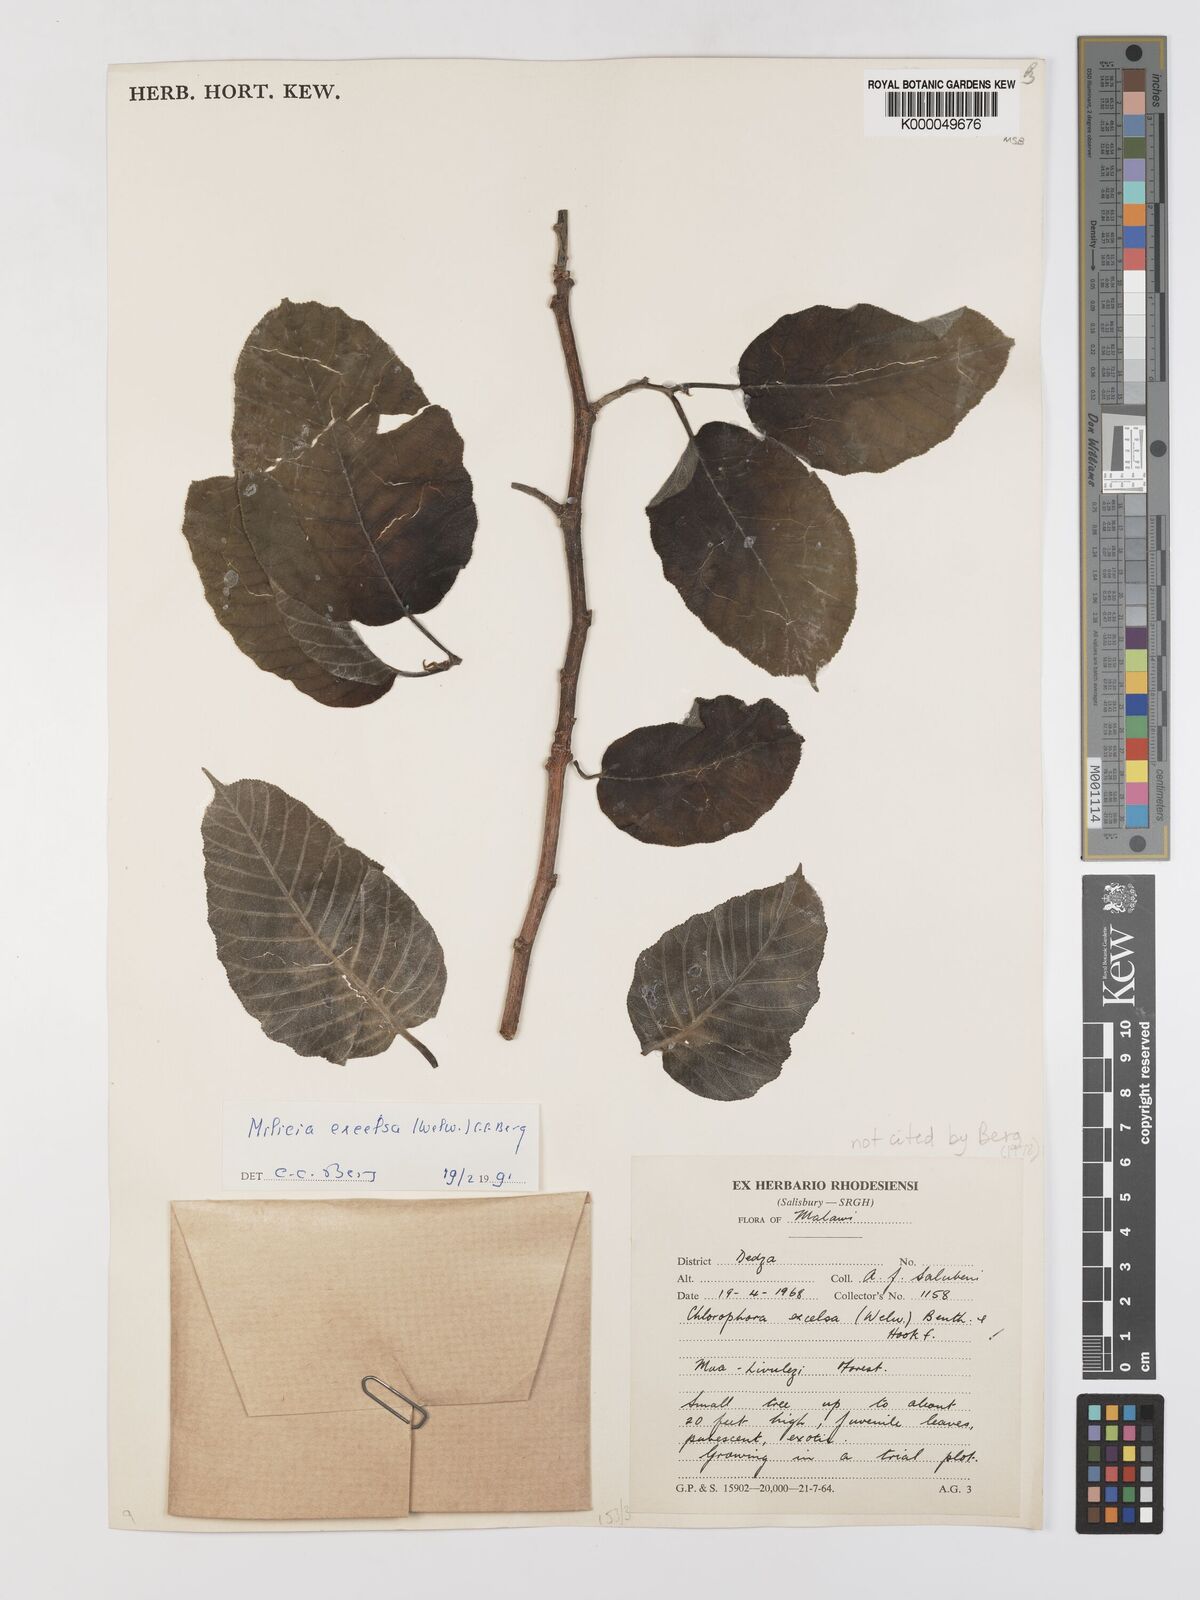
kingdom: Plantae
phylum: Tracheophyta
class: Magnoliopsida
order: Rosales
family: Moraceae
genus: Milicia
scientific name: Milicia excelsa
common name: African teak
